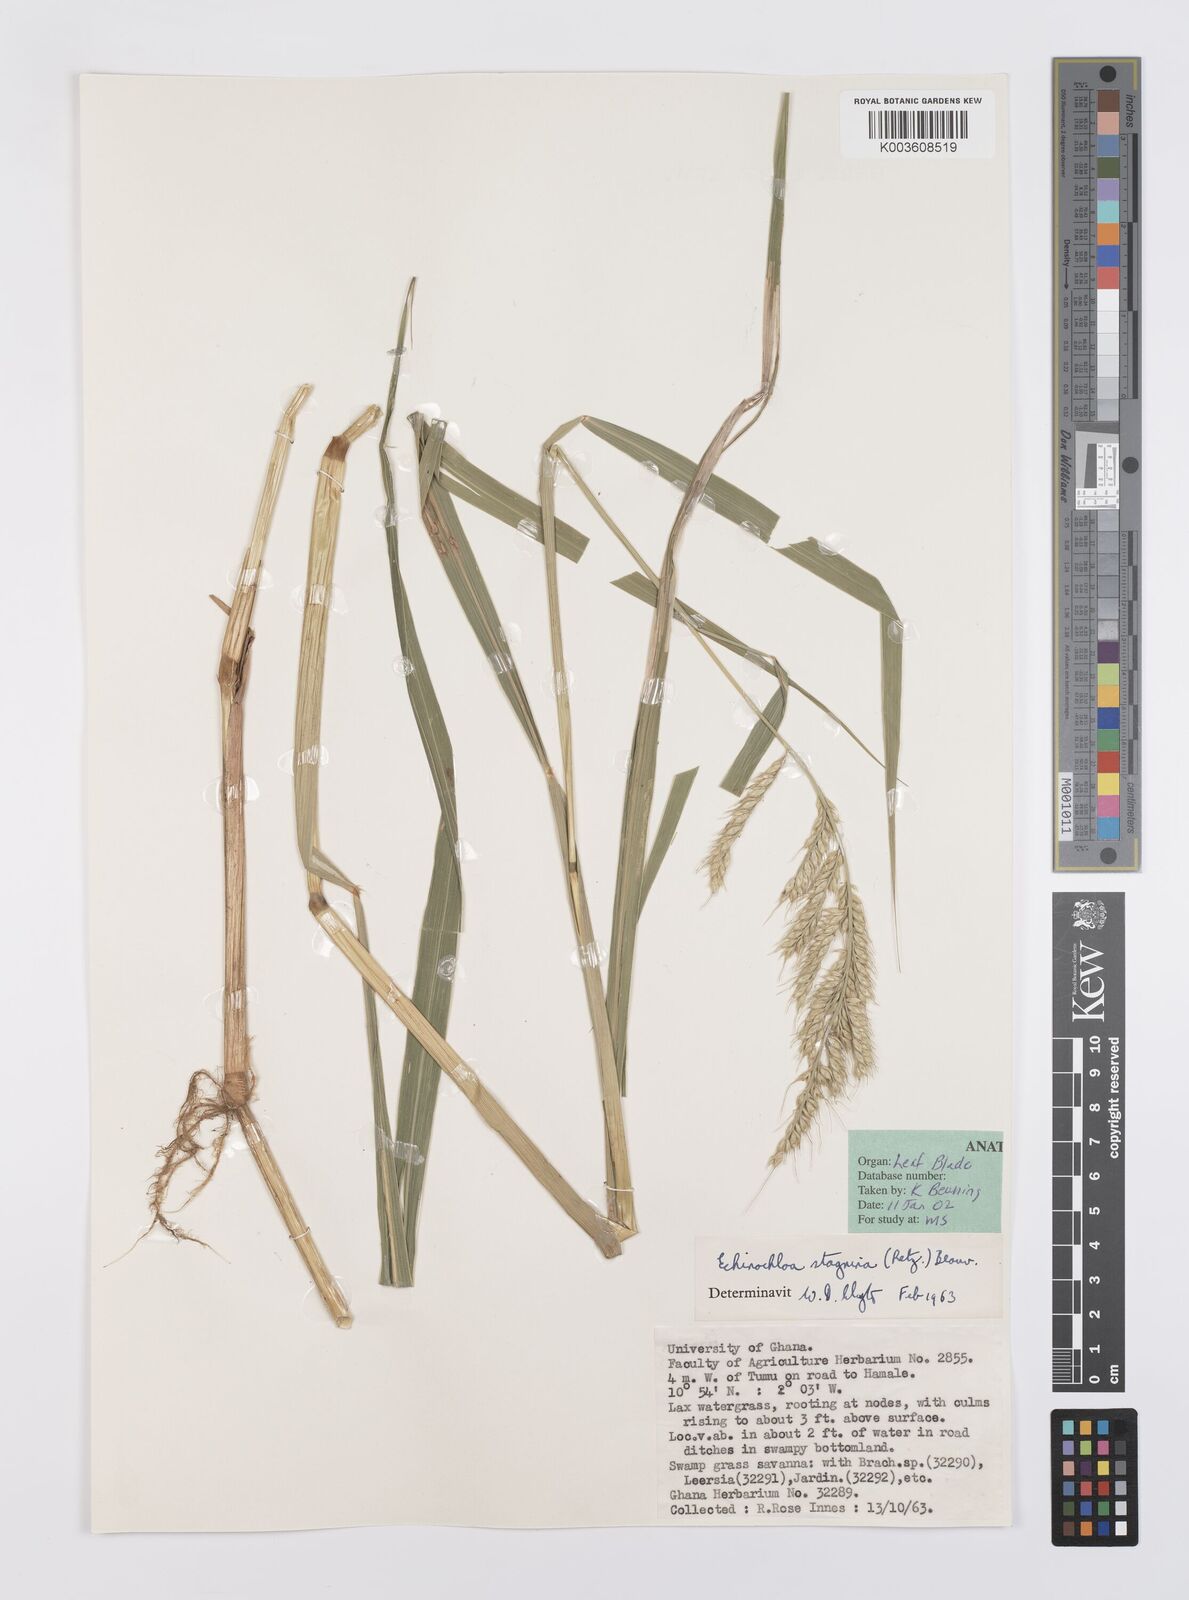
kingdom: Plantae
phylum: Tracheophyta
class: Liliopsida
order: Poales
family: Poaceae
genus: Echinochloa
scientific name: Echinochloa stagnina
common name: Burgu grass
